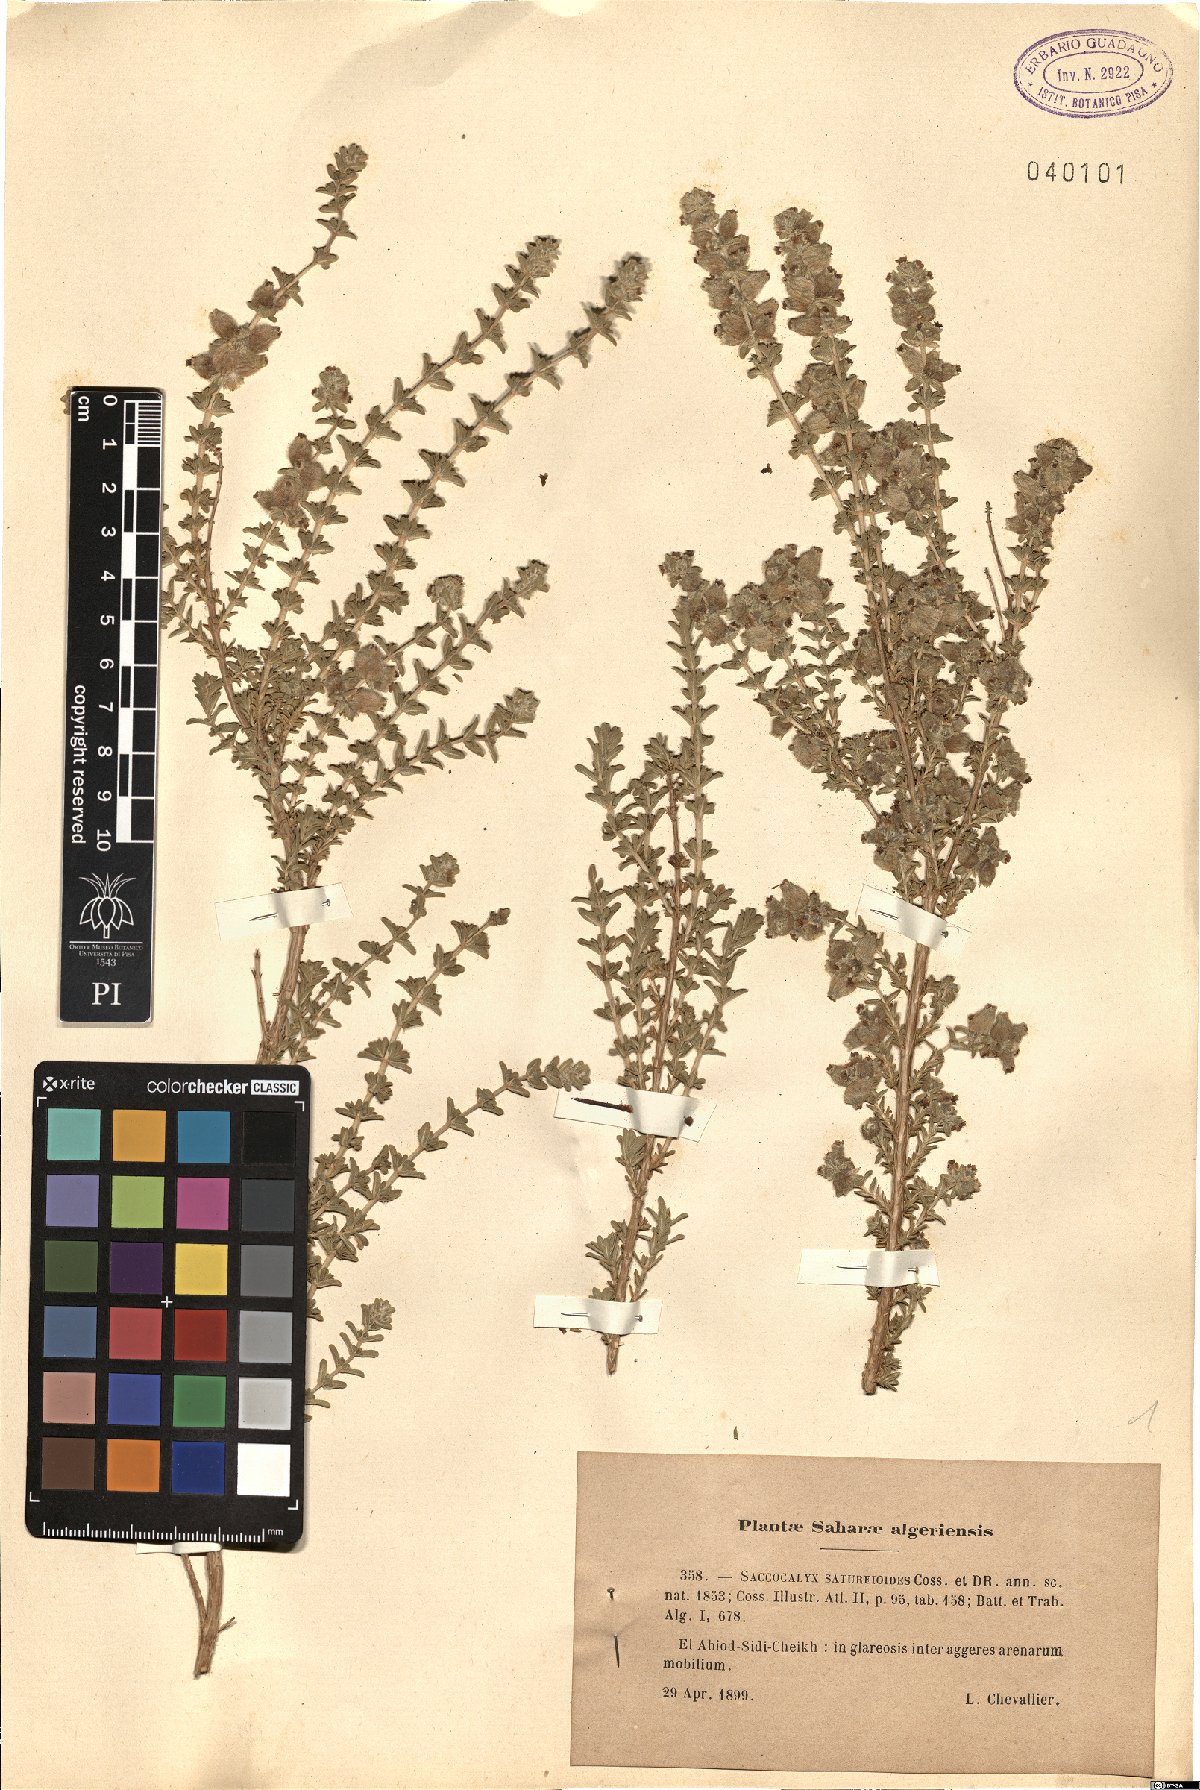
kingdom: Plantae
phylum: Tracheophyta
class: Magnoliopsida
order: Lamiales
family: Lamiaceae
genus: Saccocalyx
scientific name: Saccocalyx saturejoides
